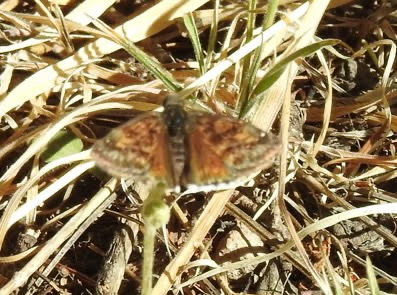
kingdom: Animalia
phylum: Arthropoda
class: Insecta
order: Lepidoptera
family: Hesperiidae
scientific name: Hesperiidae
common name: Skippers
